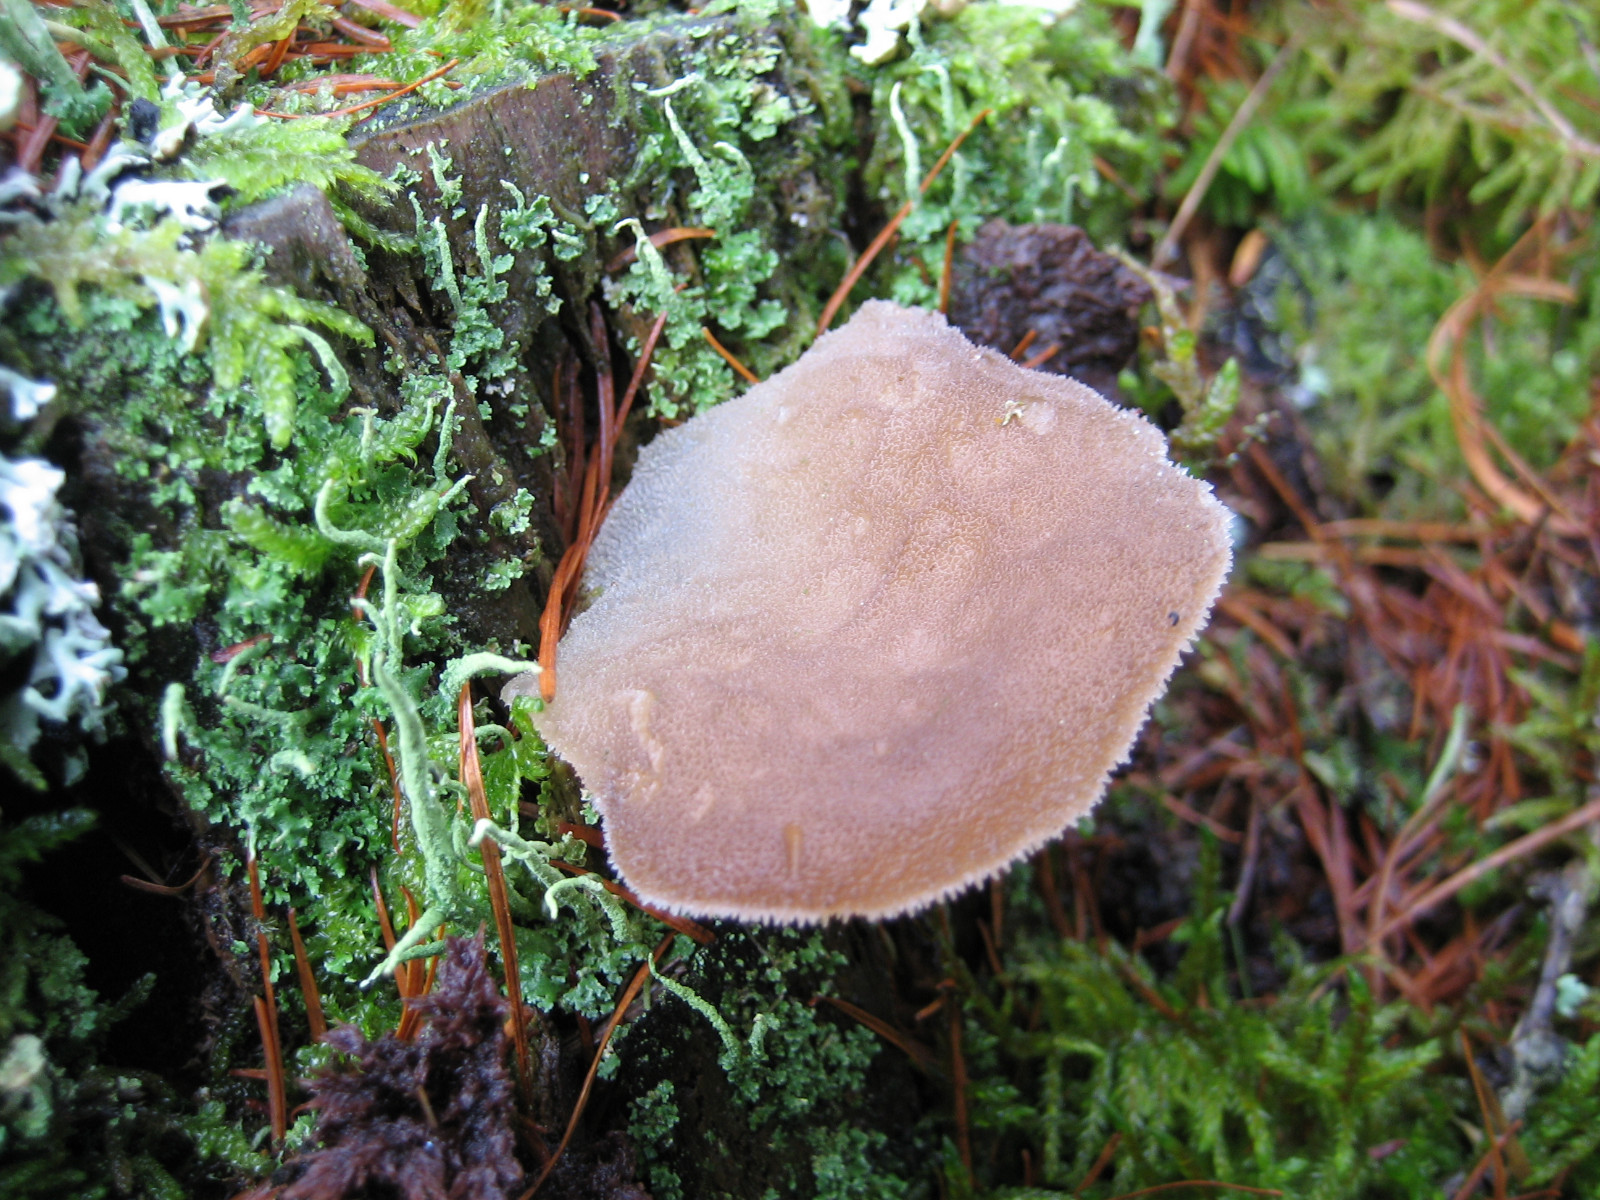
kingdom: Fungi
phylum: Basidiomycota
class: Agaricomycetes
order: Auriculariales
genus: Pseudohydnum
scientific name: Pseudohydnum gelatinosum
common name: bævretand
